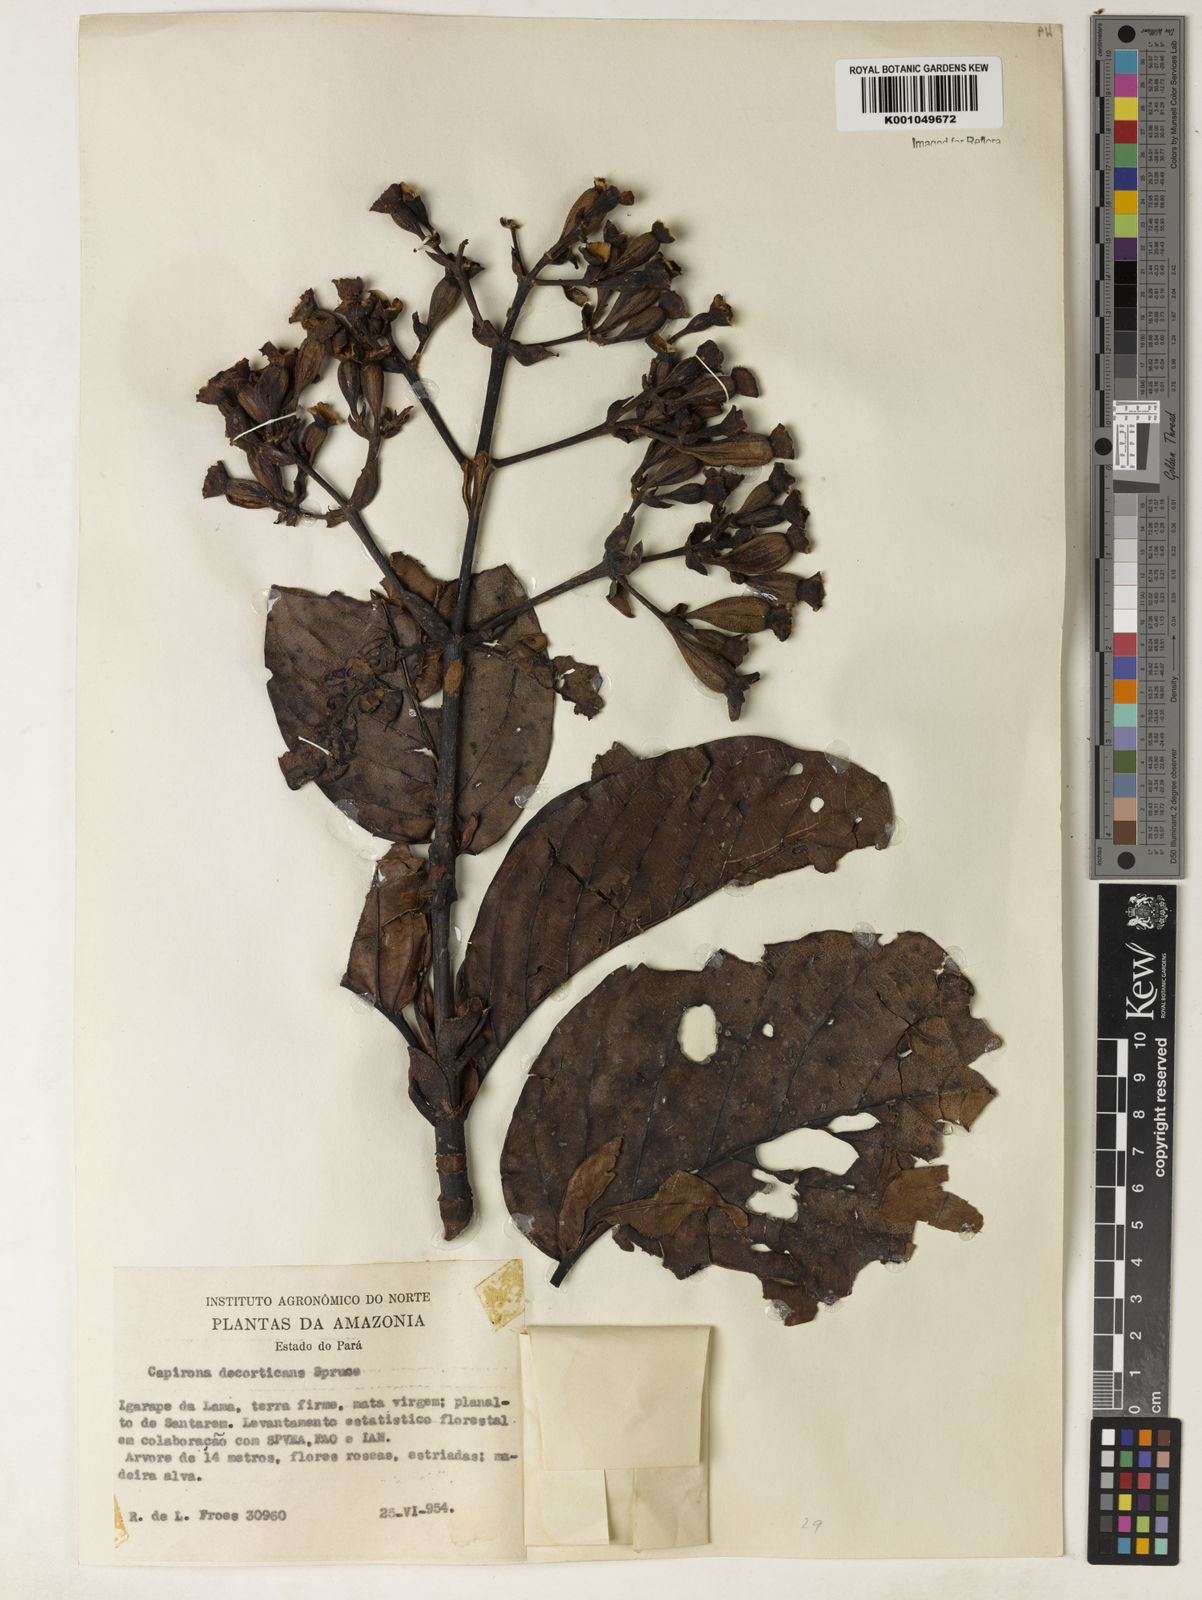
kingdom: Plantae
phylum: Tracheophyta
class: Magnoliopsida
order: Gentianales
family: Rubiaceae
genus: Capirona
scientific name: Capirona macrophylla
